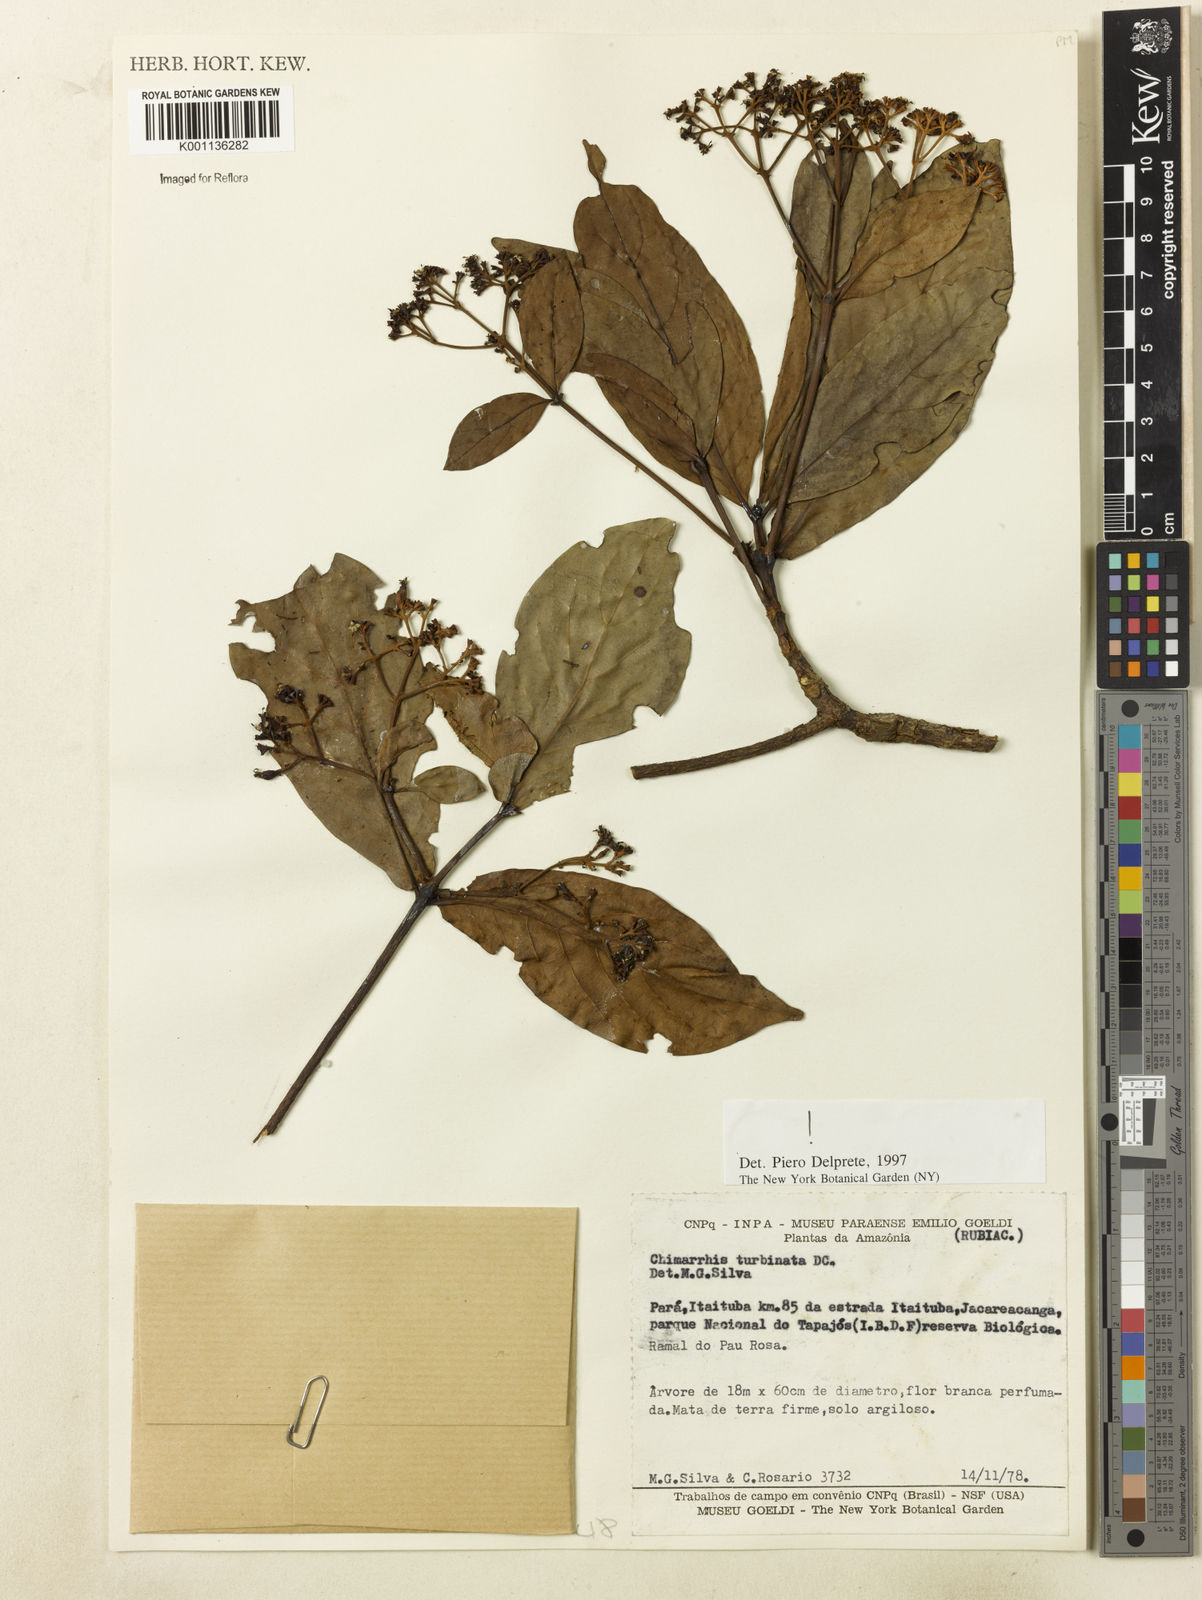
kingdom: Plantae
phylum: Tracheophyta
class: Magnoliopsida
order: Gentianales
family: Rubiaceae
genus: Chimarrhis
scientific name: Chimarrhis turbinata
